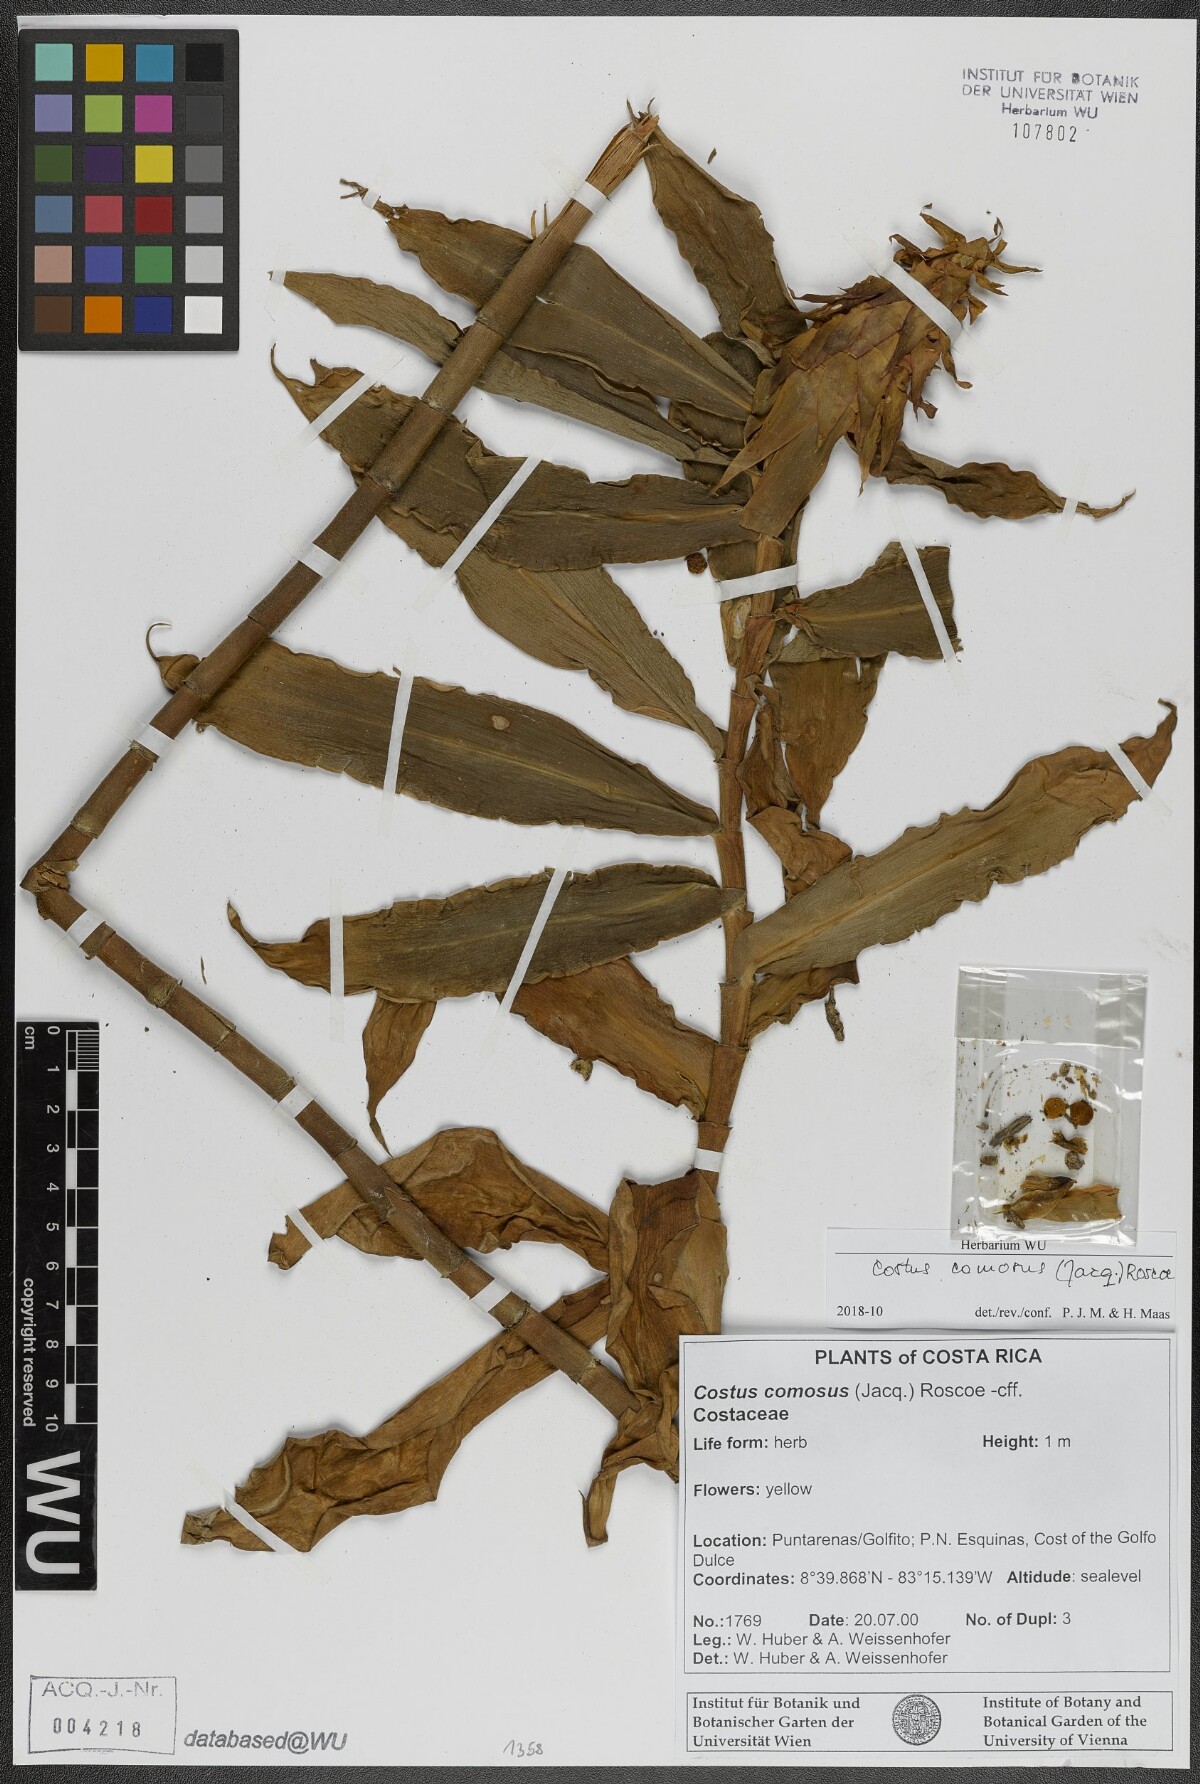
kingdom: Plantae
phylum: Tracheophyta
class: Liliopsida
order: Zingiberales
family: Costaceae
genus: Costus
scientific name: Costus comosus
